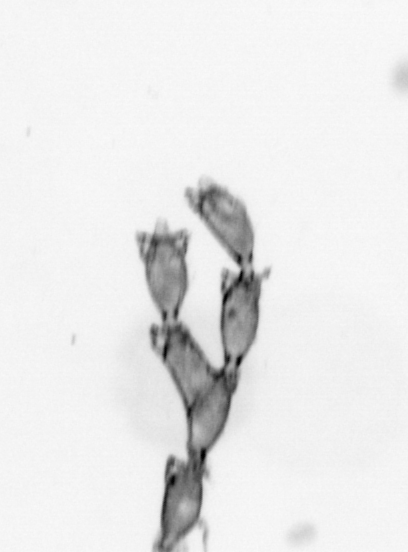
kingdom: Animalia
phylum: Cnidaria
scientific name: Cnidaria
